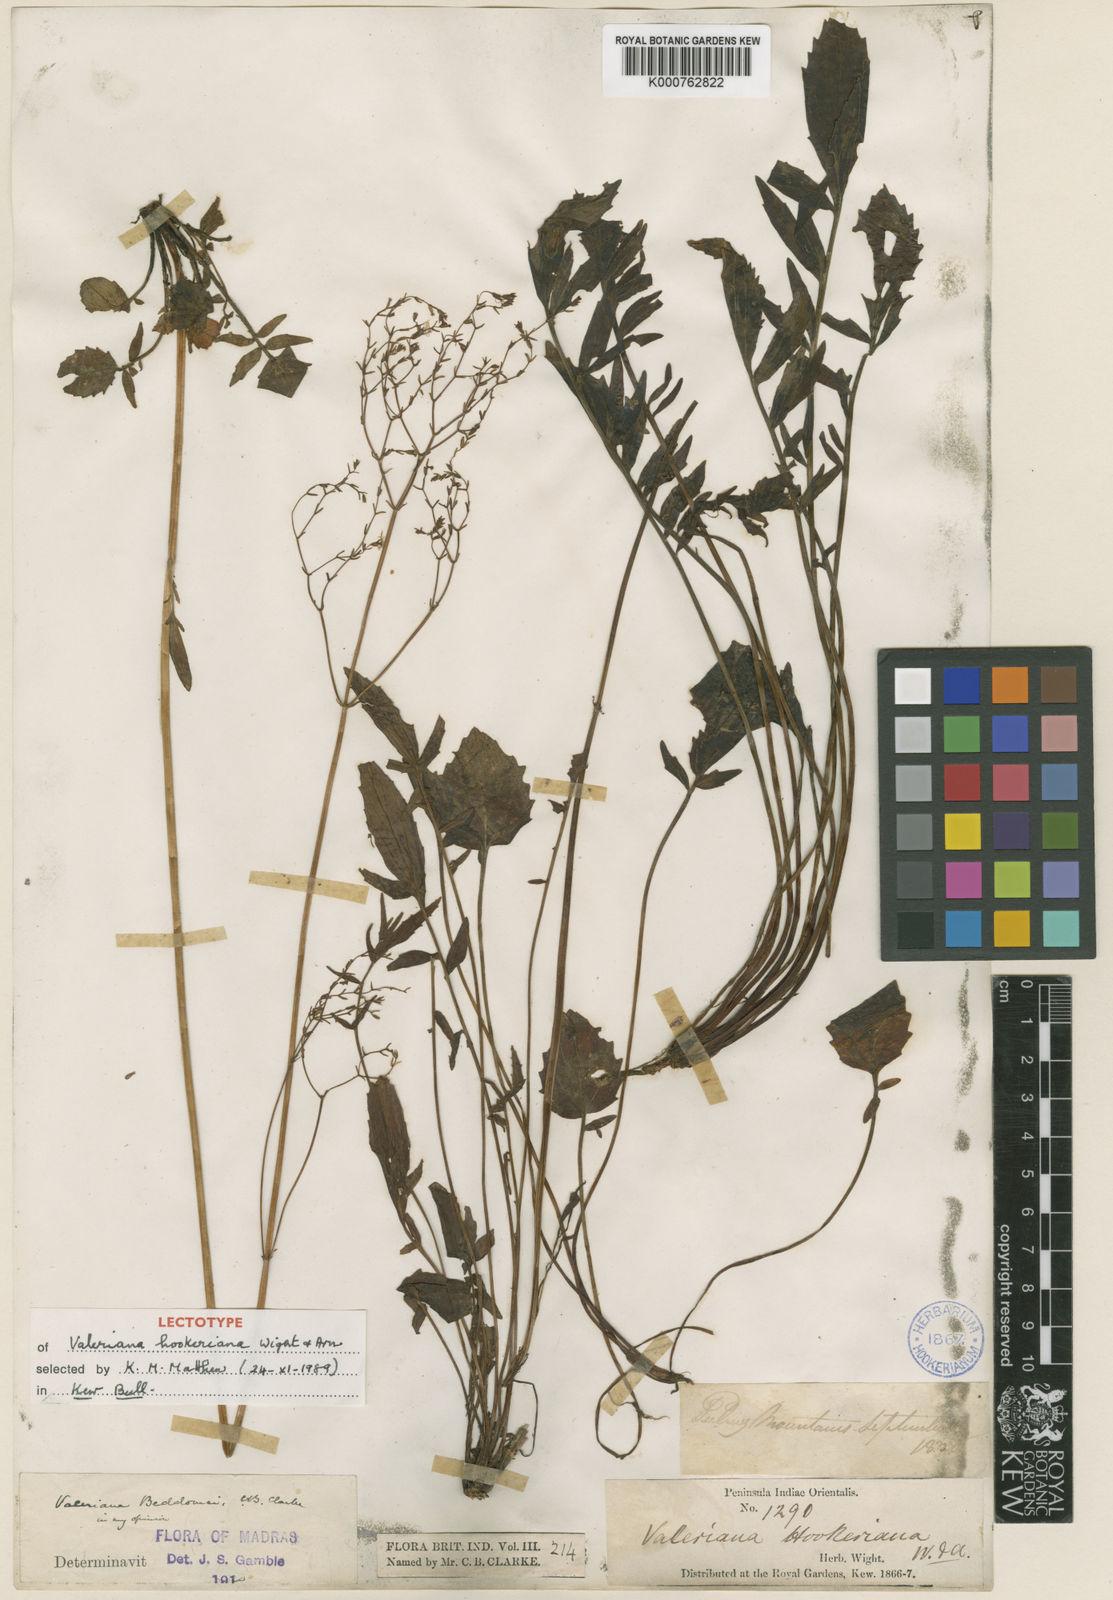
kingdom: Plantae
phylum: Tracheophyta
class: Magnoliopsida
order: Dipsacales
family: Caprifoliaceae
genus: Valeriana
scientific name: Valeriana hardwickei
